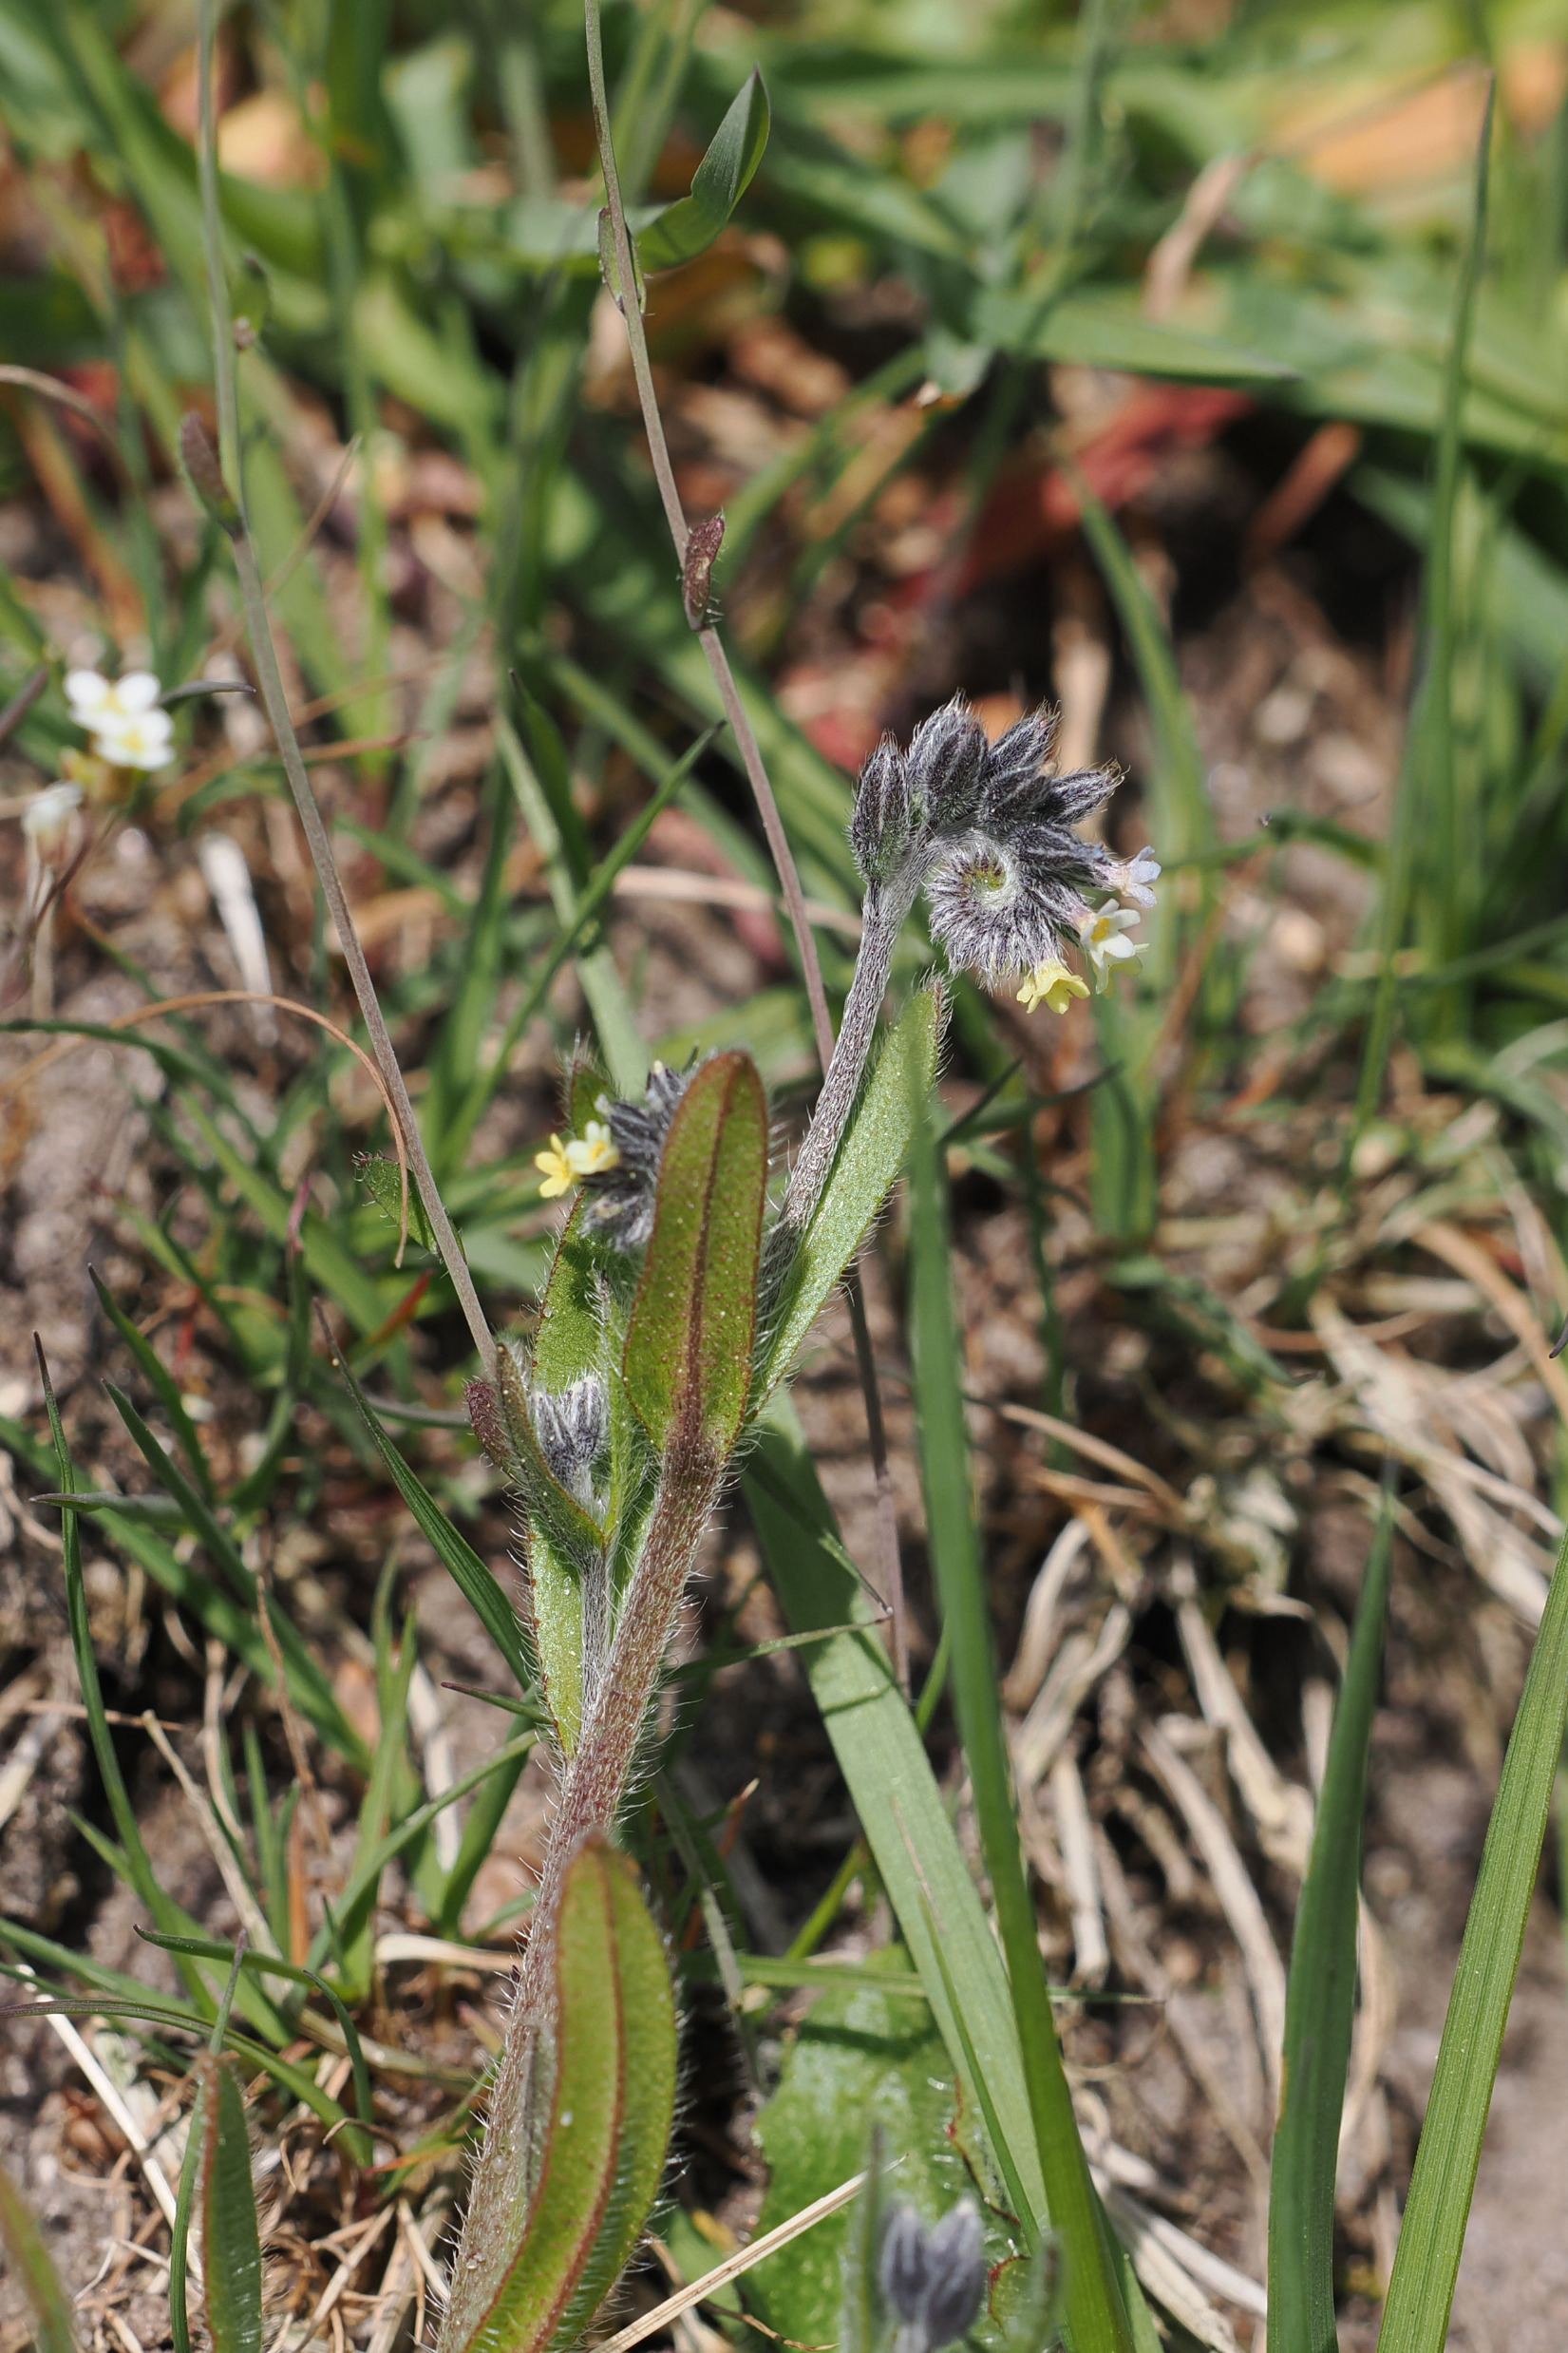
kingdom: Plantae
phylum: Tracheophyta
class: Magnoliopsida
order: Boraginales
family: Boraginaceae
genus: Myosotis
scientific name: Myosotis discolor
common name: Forskelligfarvet forglemmigej
